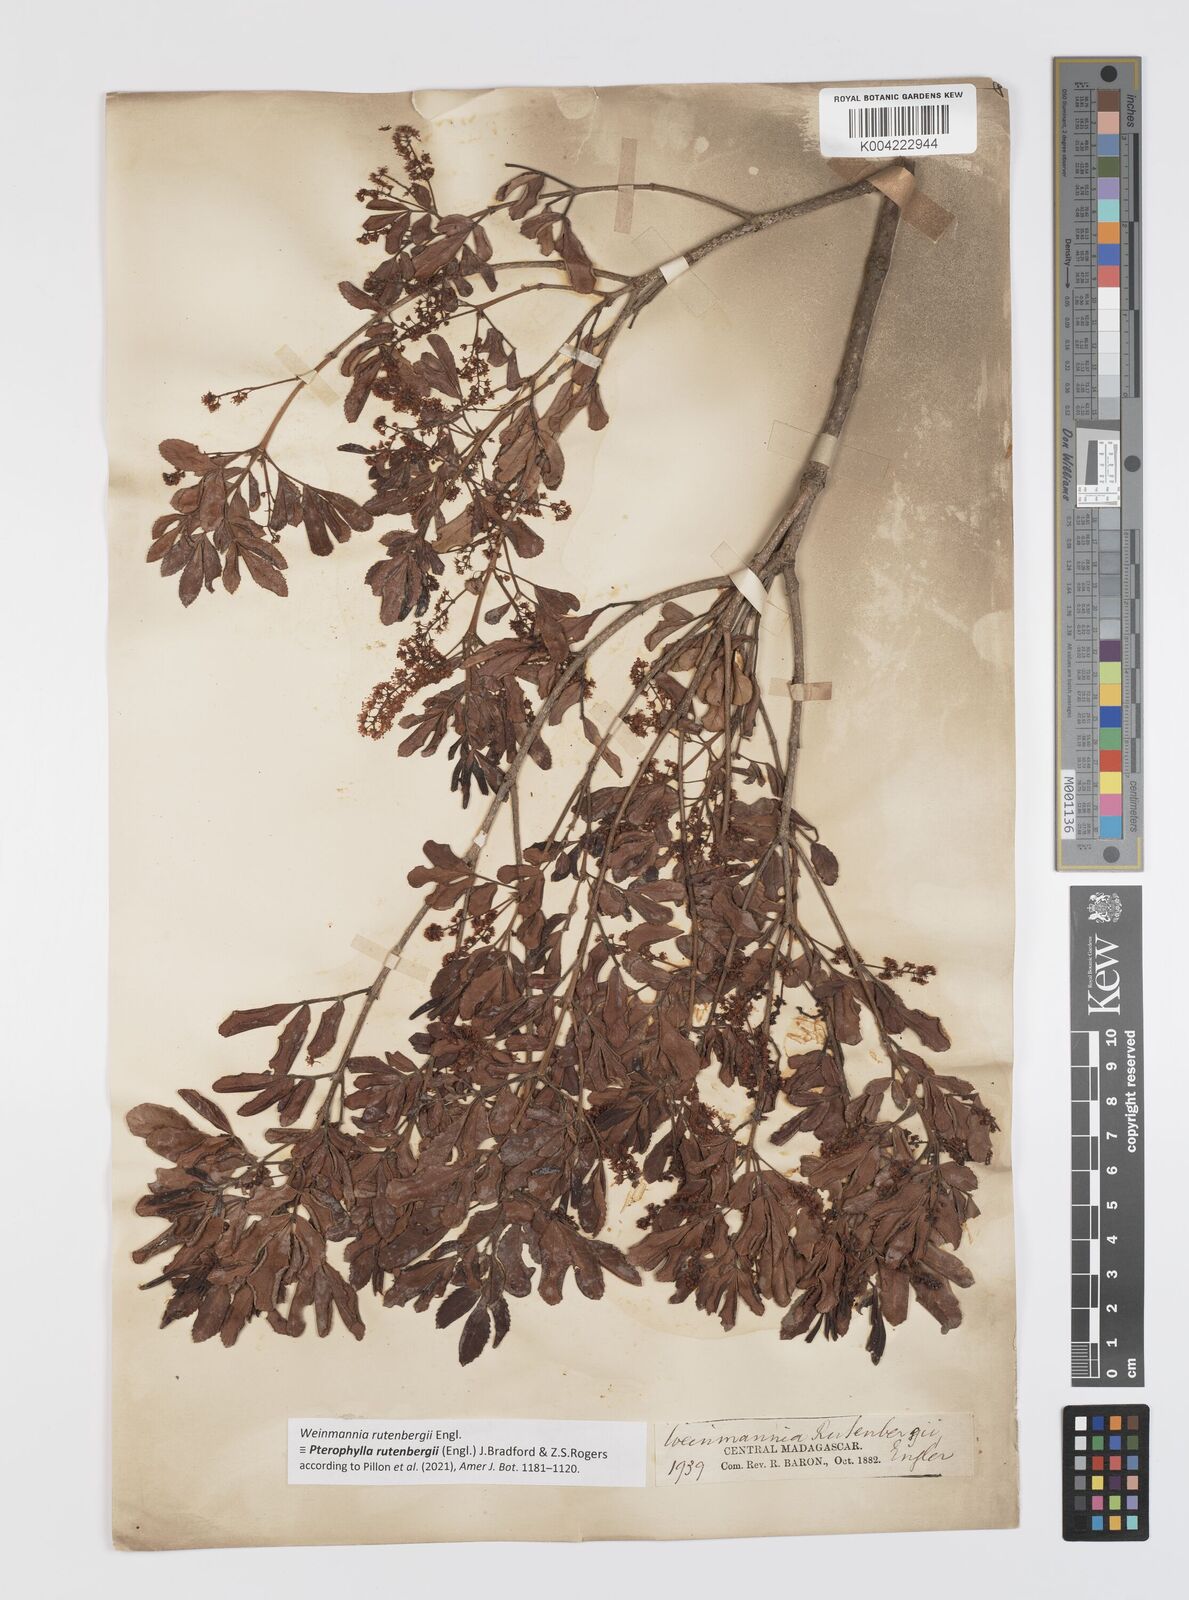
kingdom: Plantae
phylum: Tracheophyta
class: Magnoliopsida
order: Oxalidales
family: Cunoniaceae
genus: Pterophylla
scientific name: Pterophylla rutenbergii
